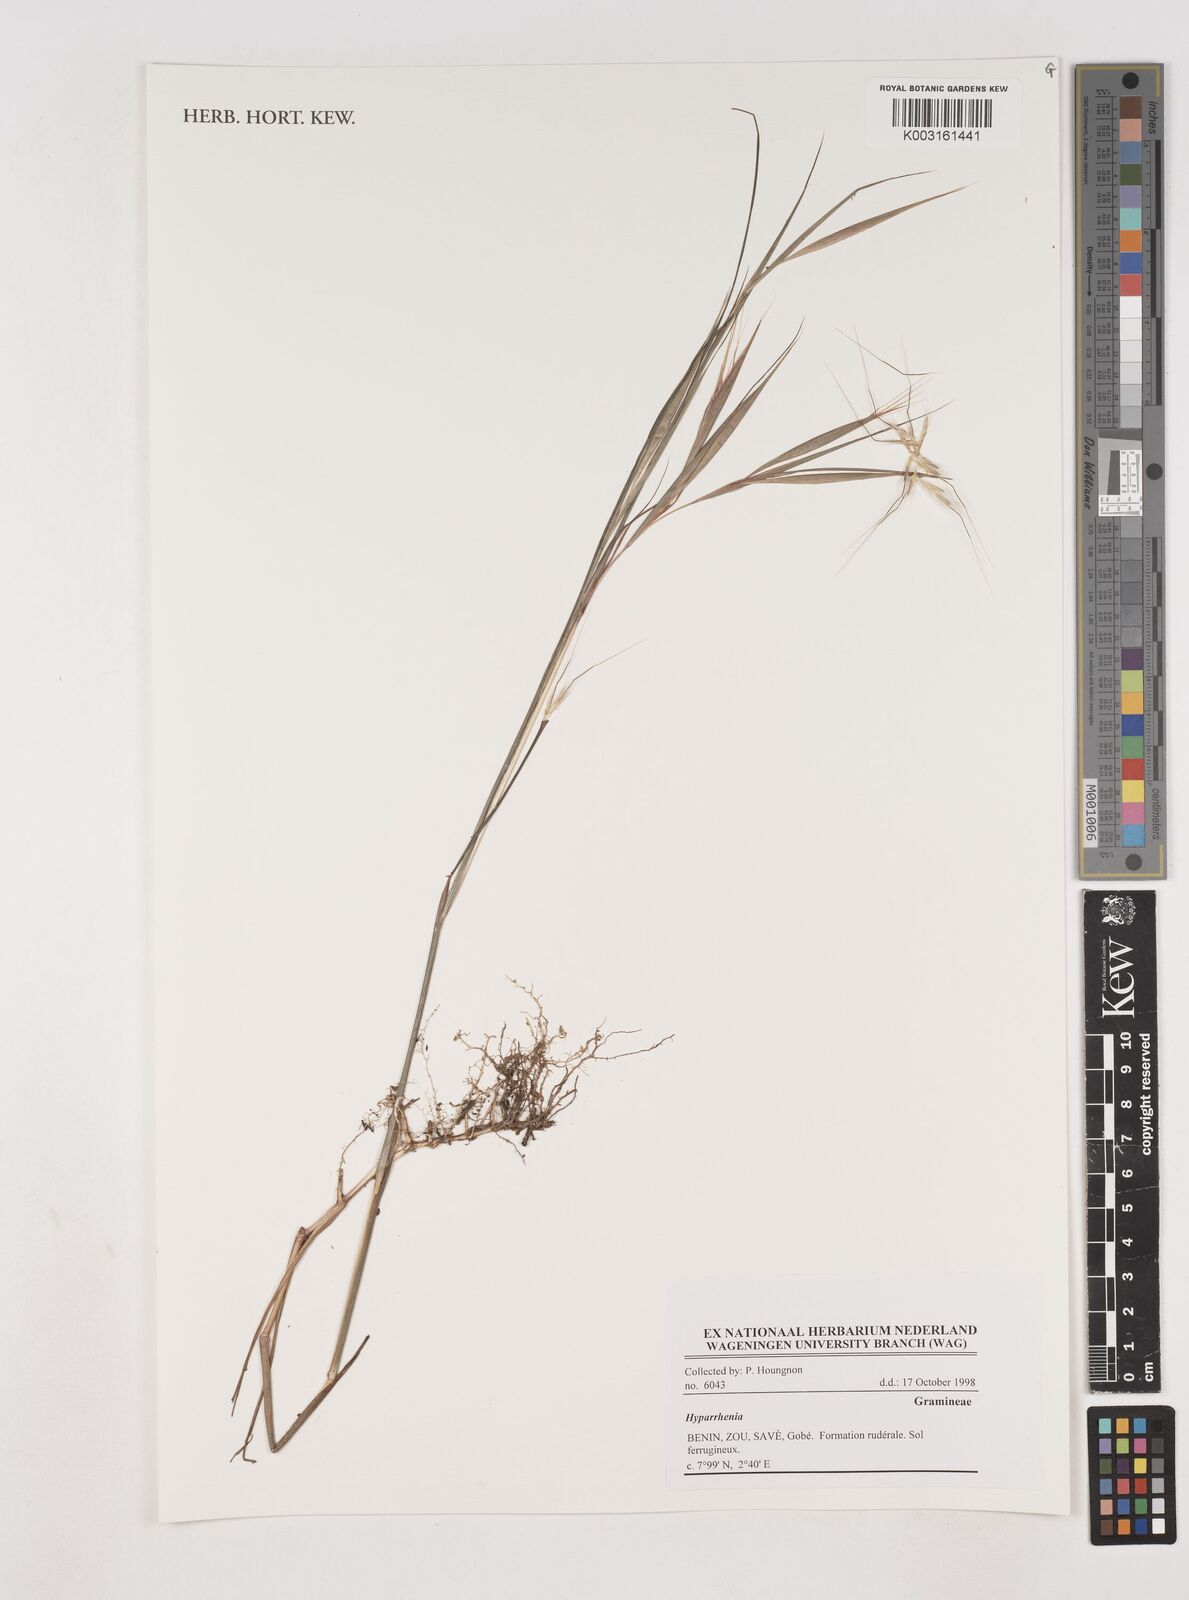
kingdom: Plantae
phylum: Tracheophyta
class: Liliopsida
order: Poales
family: Poaceae
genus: Hyparrhenia
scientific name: Hyparrhenia
